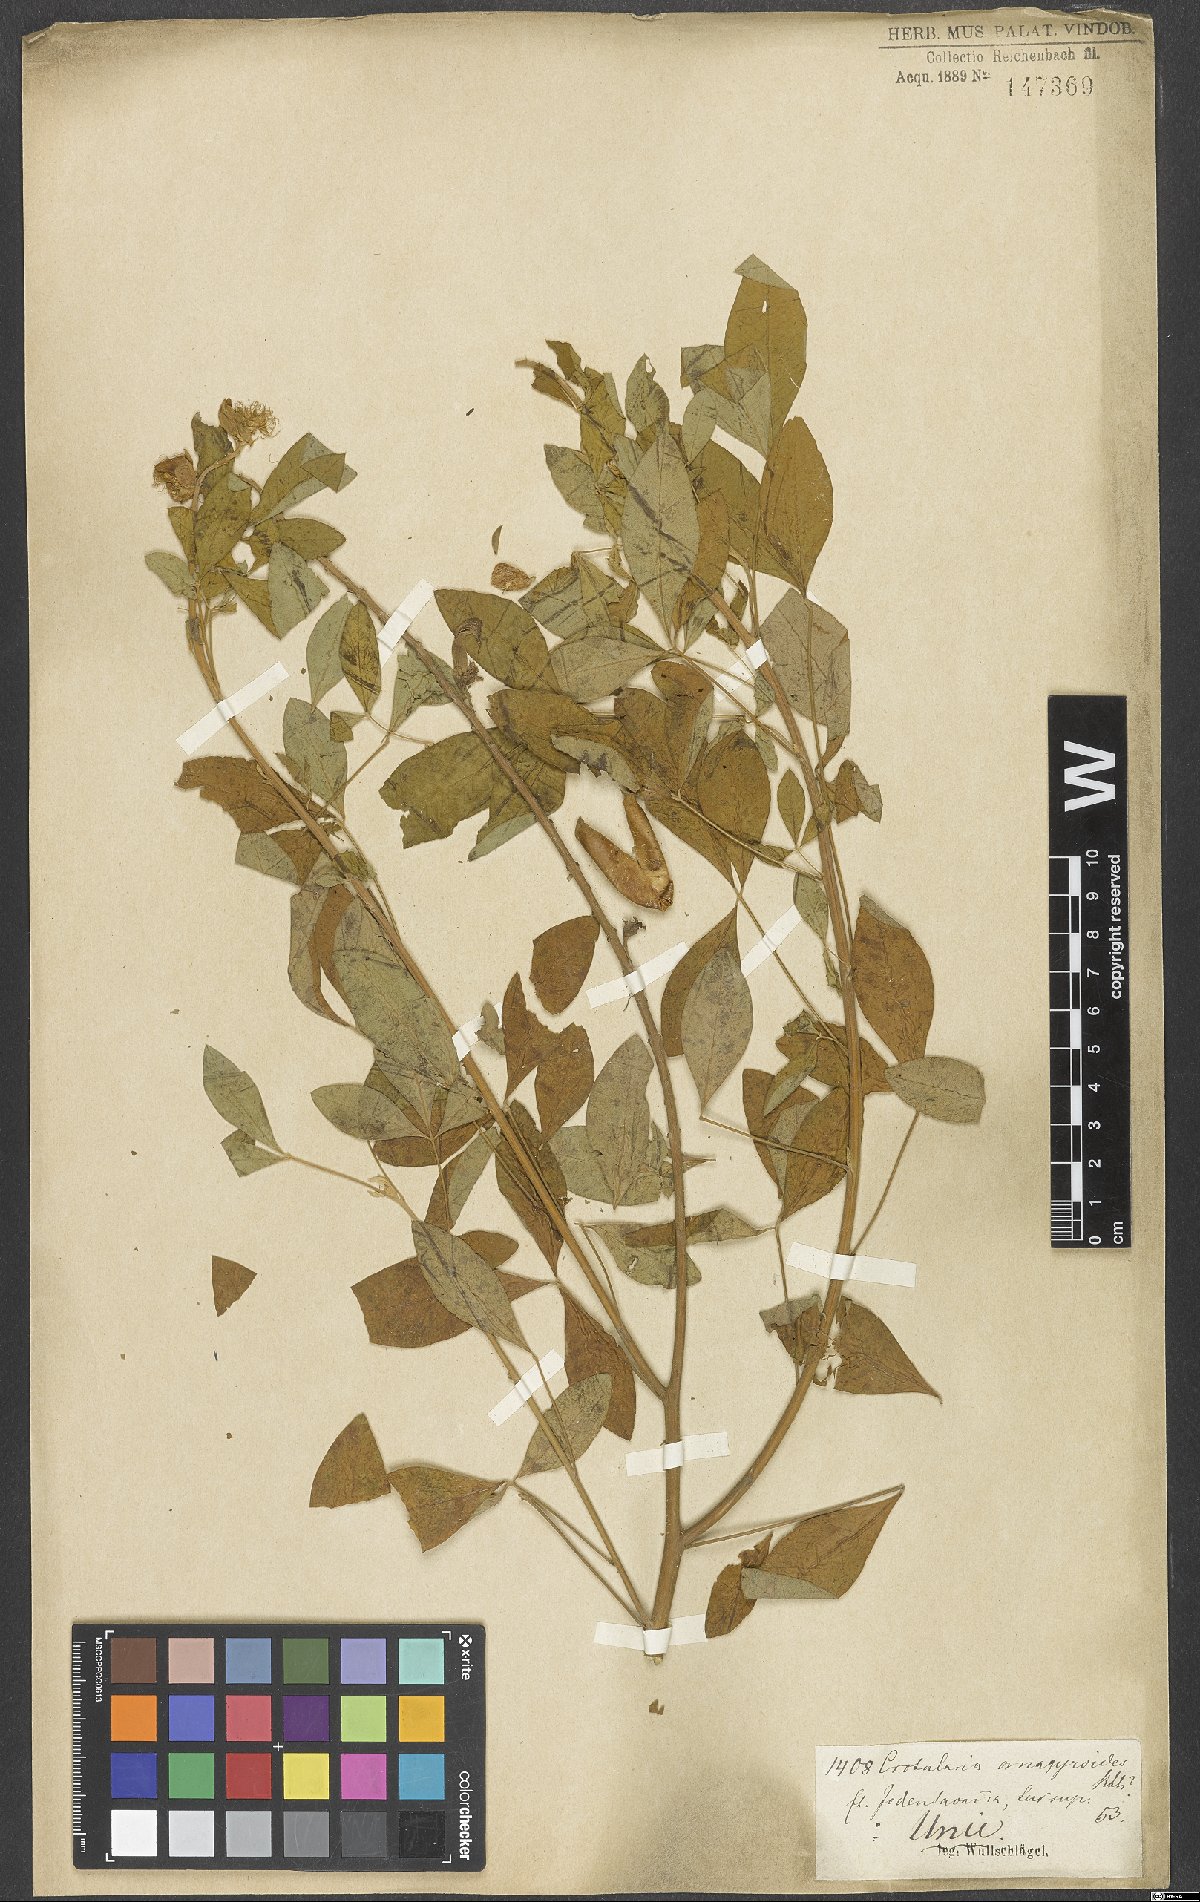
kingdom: Plantae
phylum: Tracheophyta
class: Magnoliopsida
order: Fabales
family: Fabaceae
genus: Crotalaria
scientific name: Crotalaria micans
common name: Caracas rattlebox
